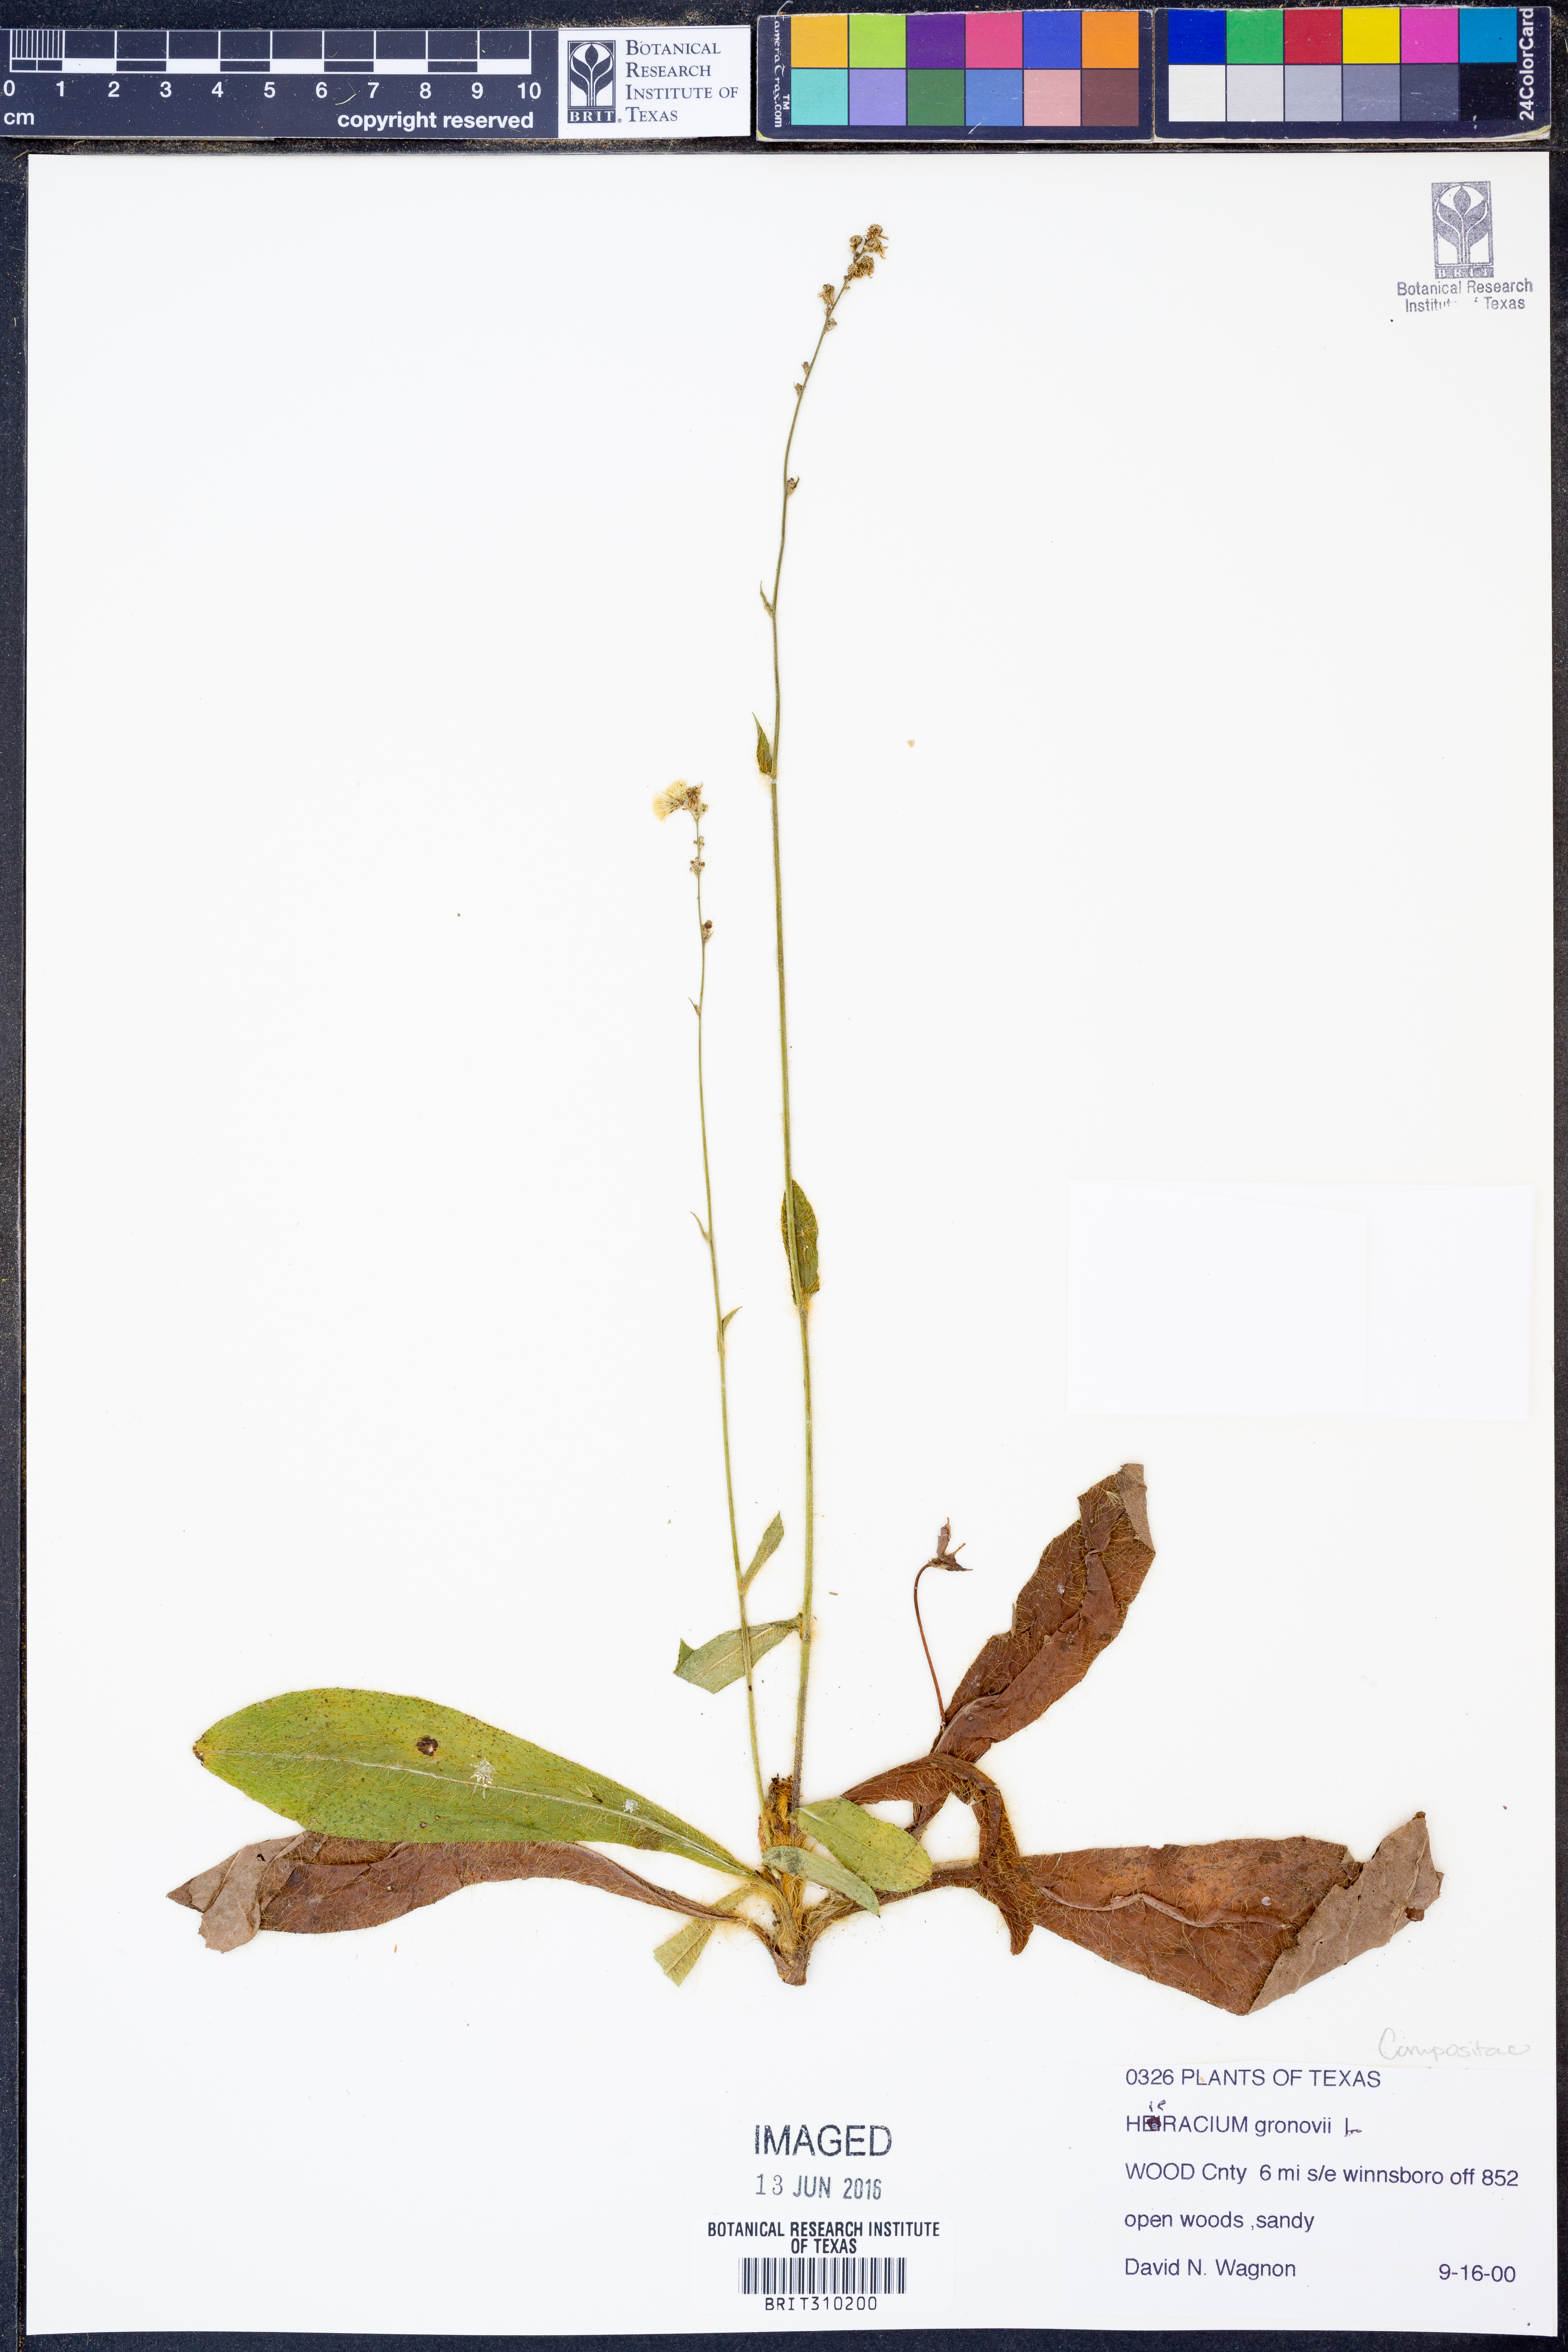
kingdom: Plantae
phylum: Tracheophyta
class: Magnoliopsida
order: Asterales
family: Asteraceae
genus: Hieracium
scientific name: Hieracium gronovii
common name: Beaked hawkweed
